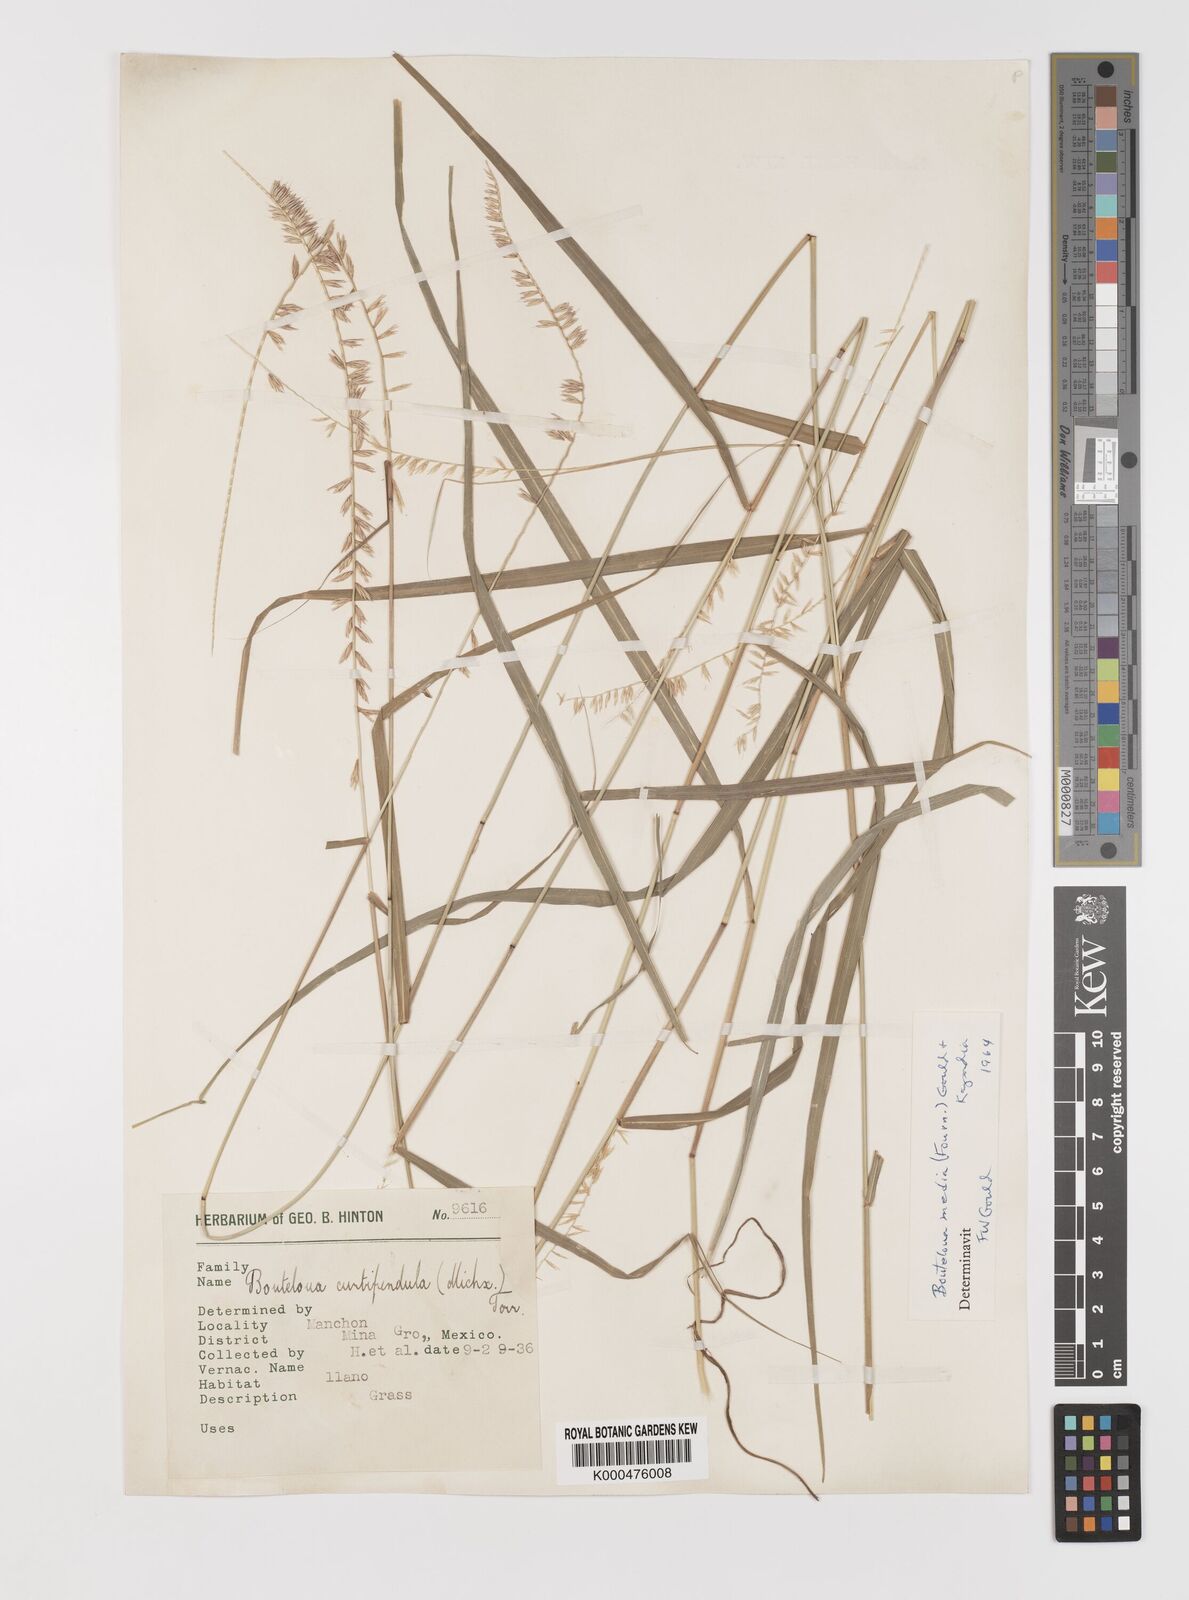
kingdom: Plantae
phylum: Tracheophyta
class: Liliopsida
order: Poales
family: Poaceae
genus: Bouteloua
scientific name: Bouteloua media
